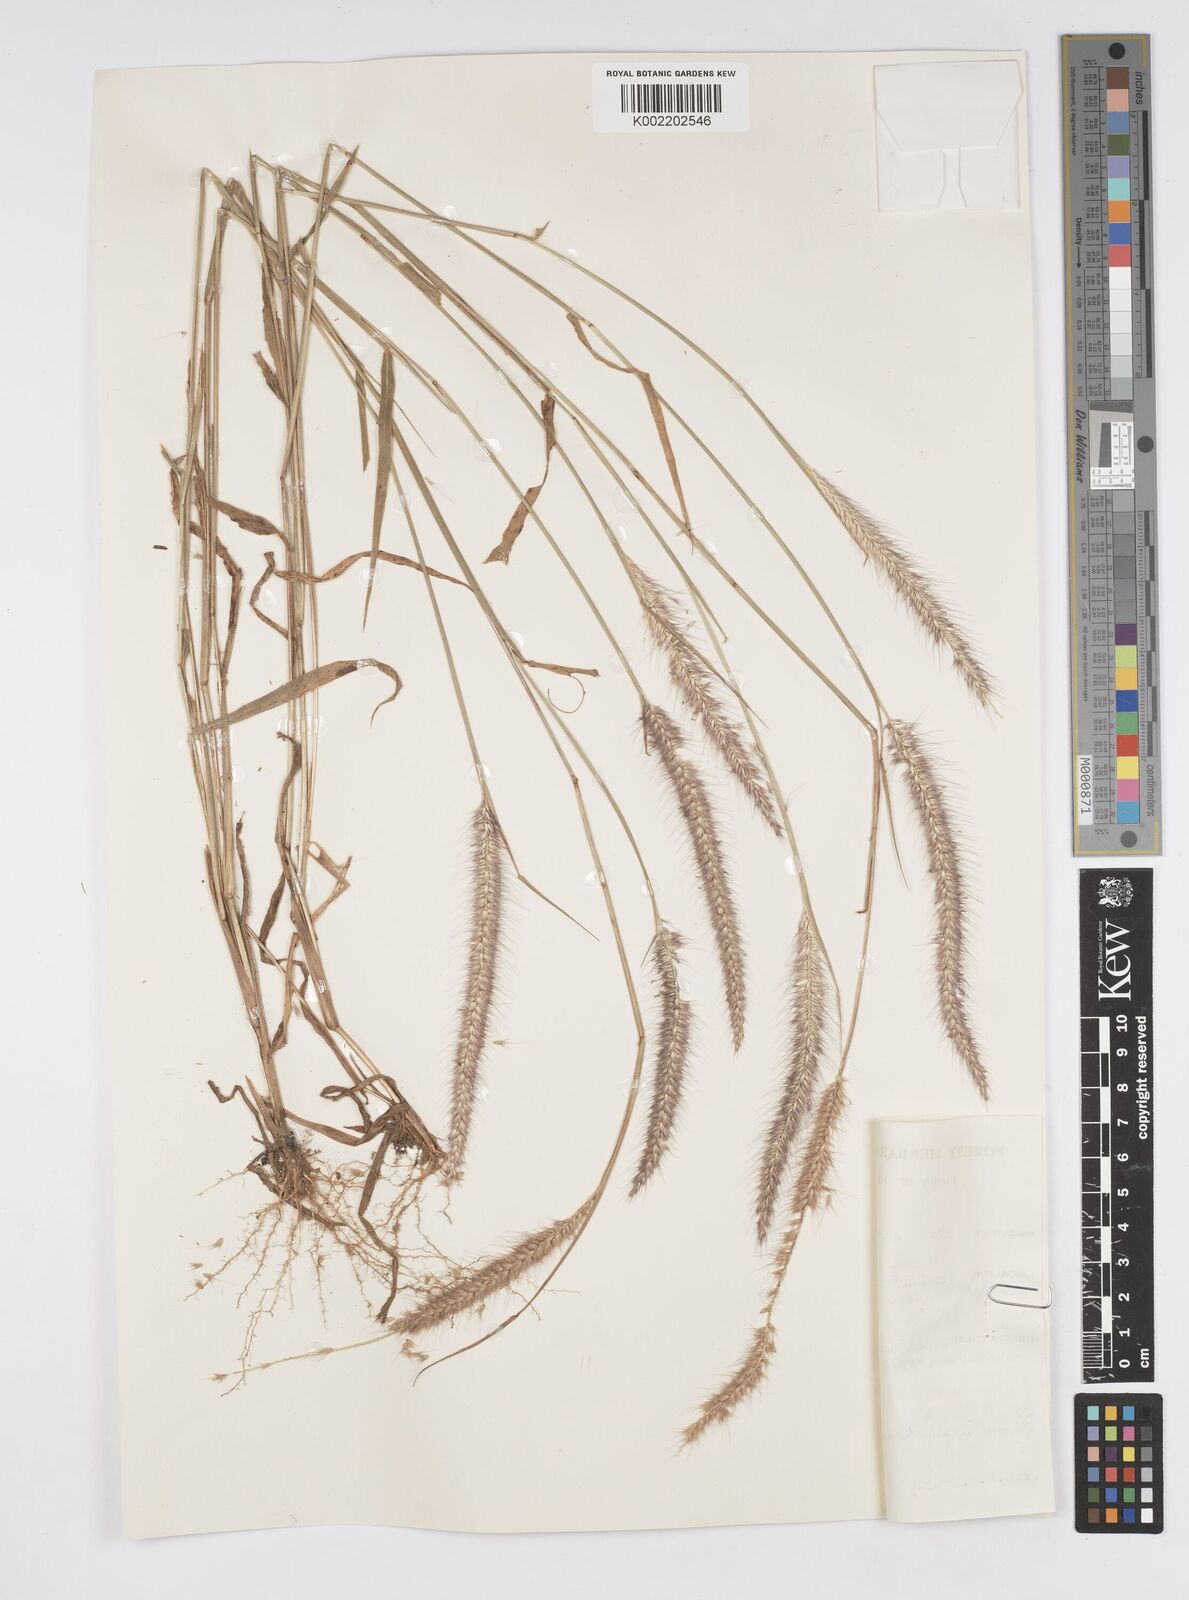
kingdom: Plantae
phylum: Tracheophyta
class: Liliopsida
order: Poales
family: Poaceae
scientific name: Poaceae
